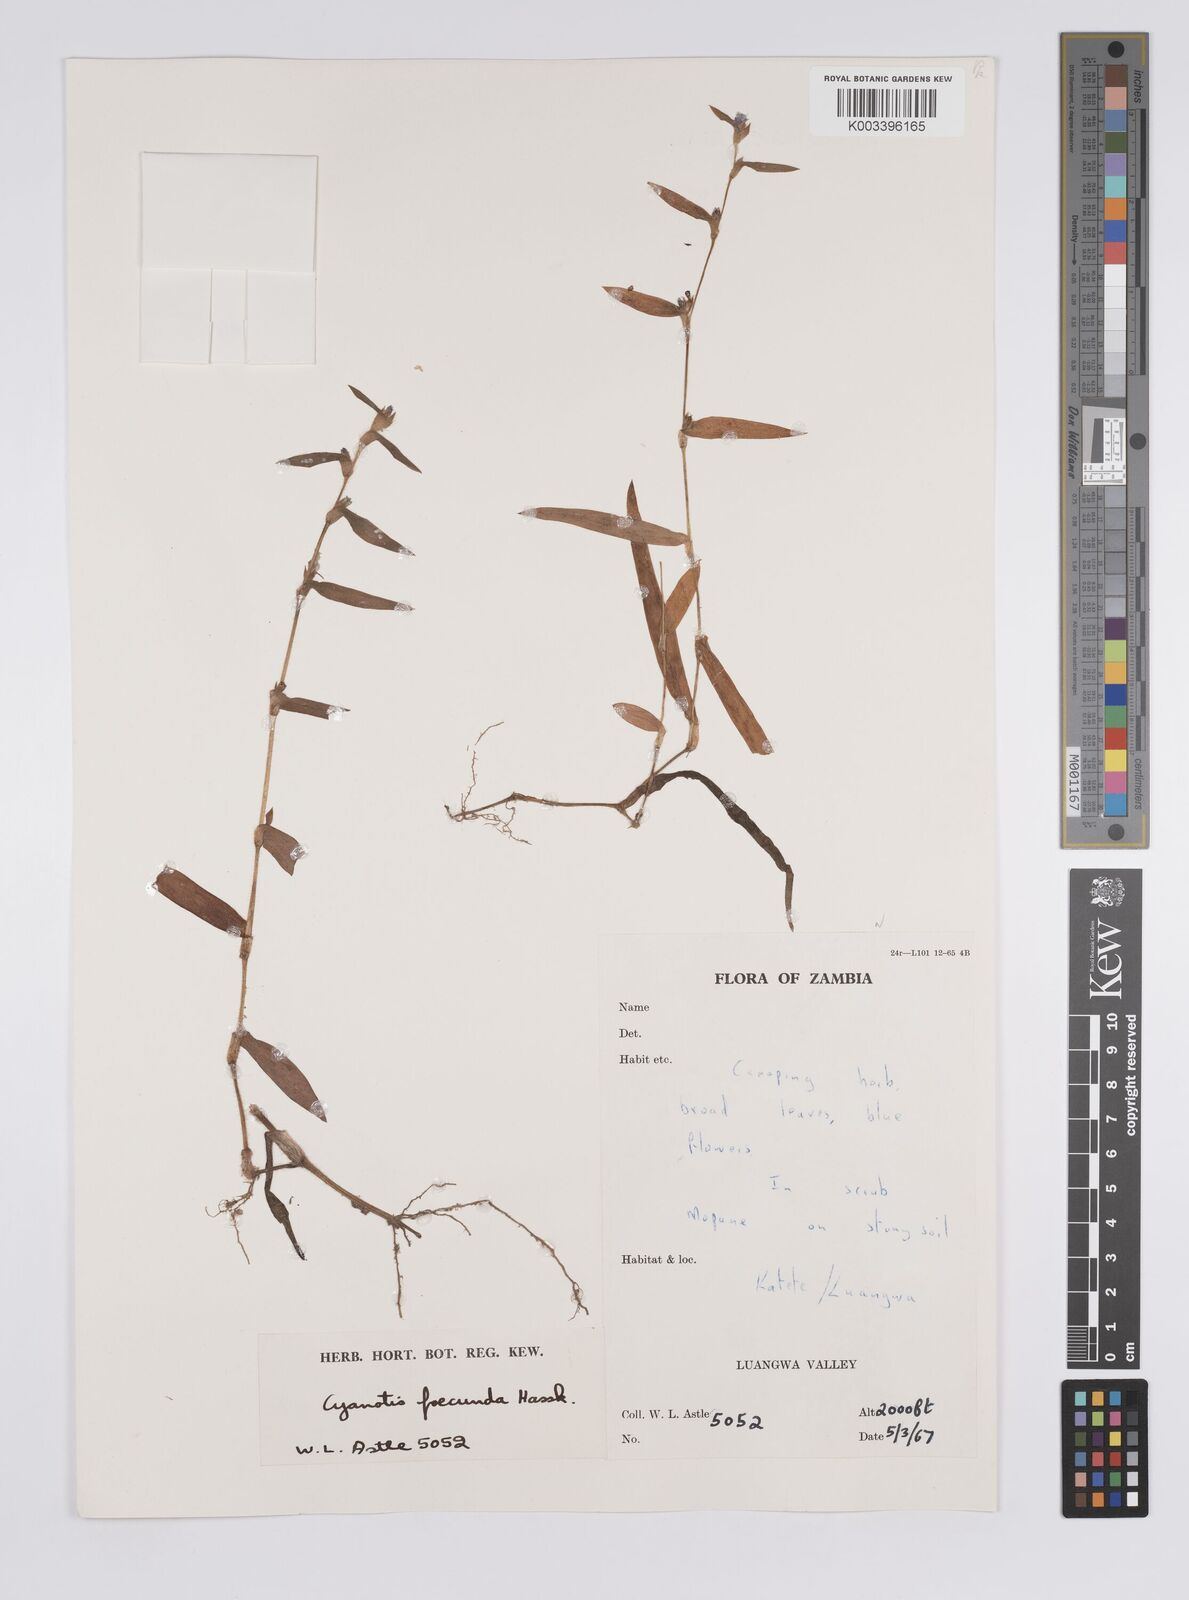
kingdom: Plantae
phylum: Tracheophyta
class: Liliopsida
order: Commelinales
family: Commelinaceae
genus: Cyanotis
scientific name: Cyanotis foecunda
